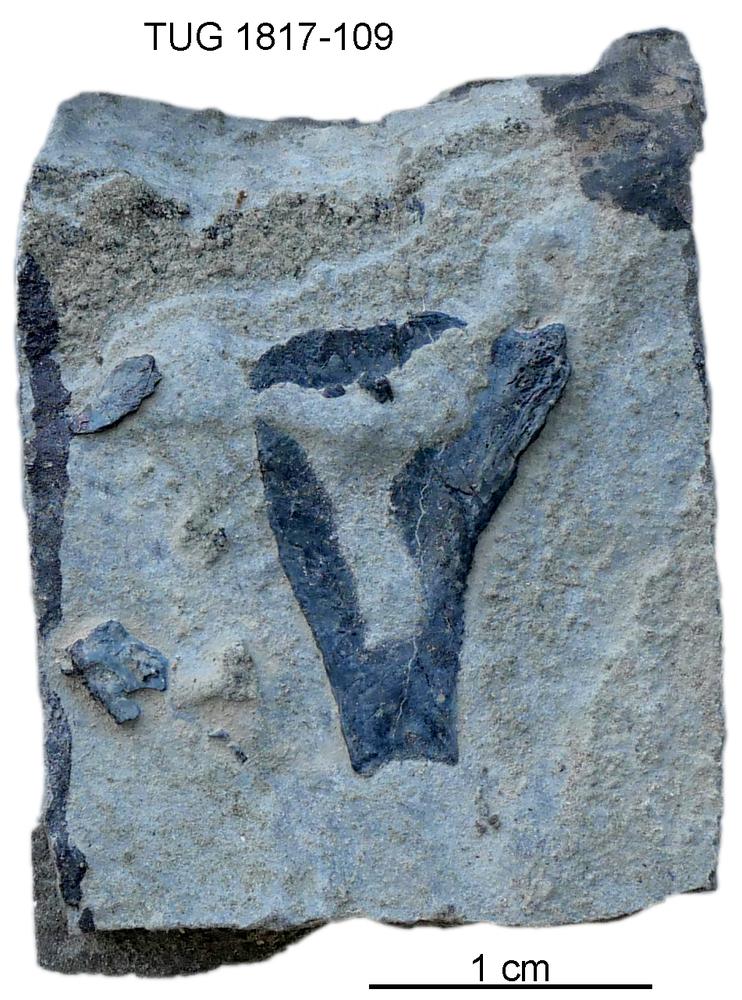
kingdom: Animalia
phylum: Chordata
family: Coccosteidae
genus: Millerosteus
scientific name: Millerosteus minor
